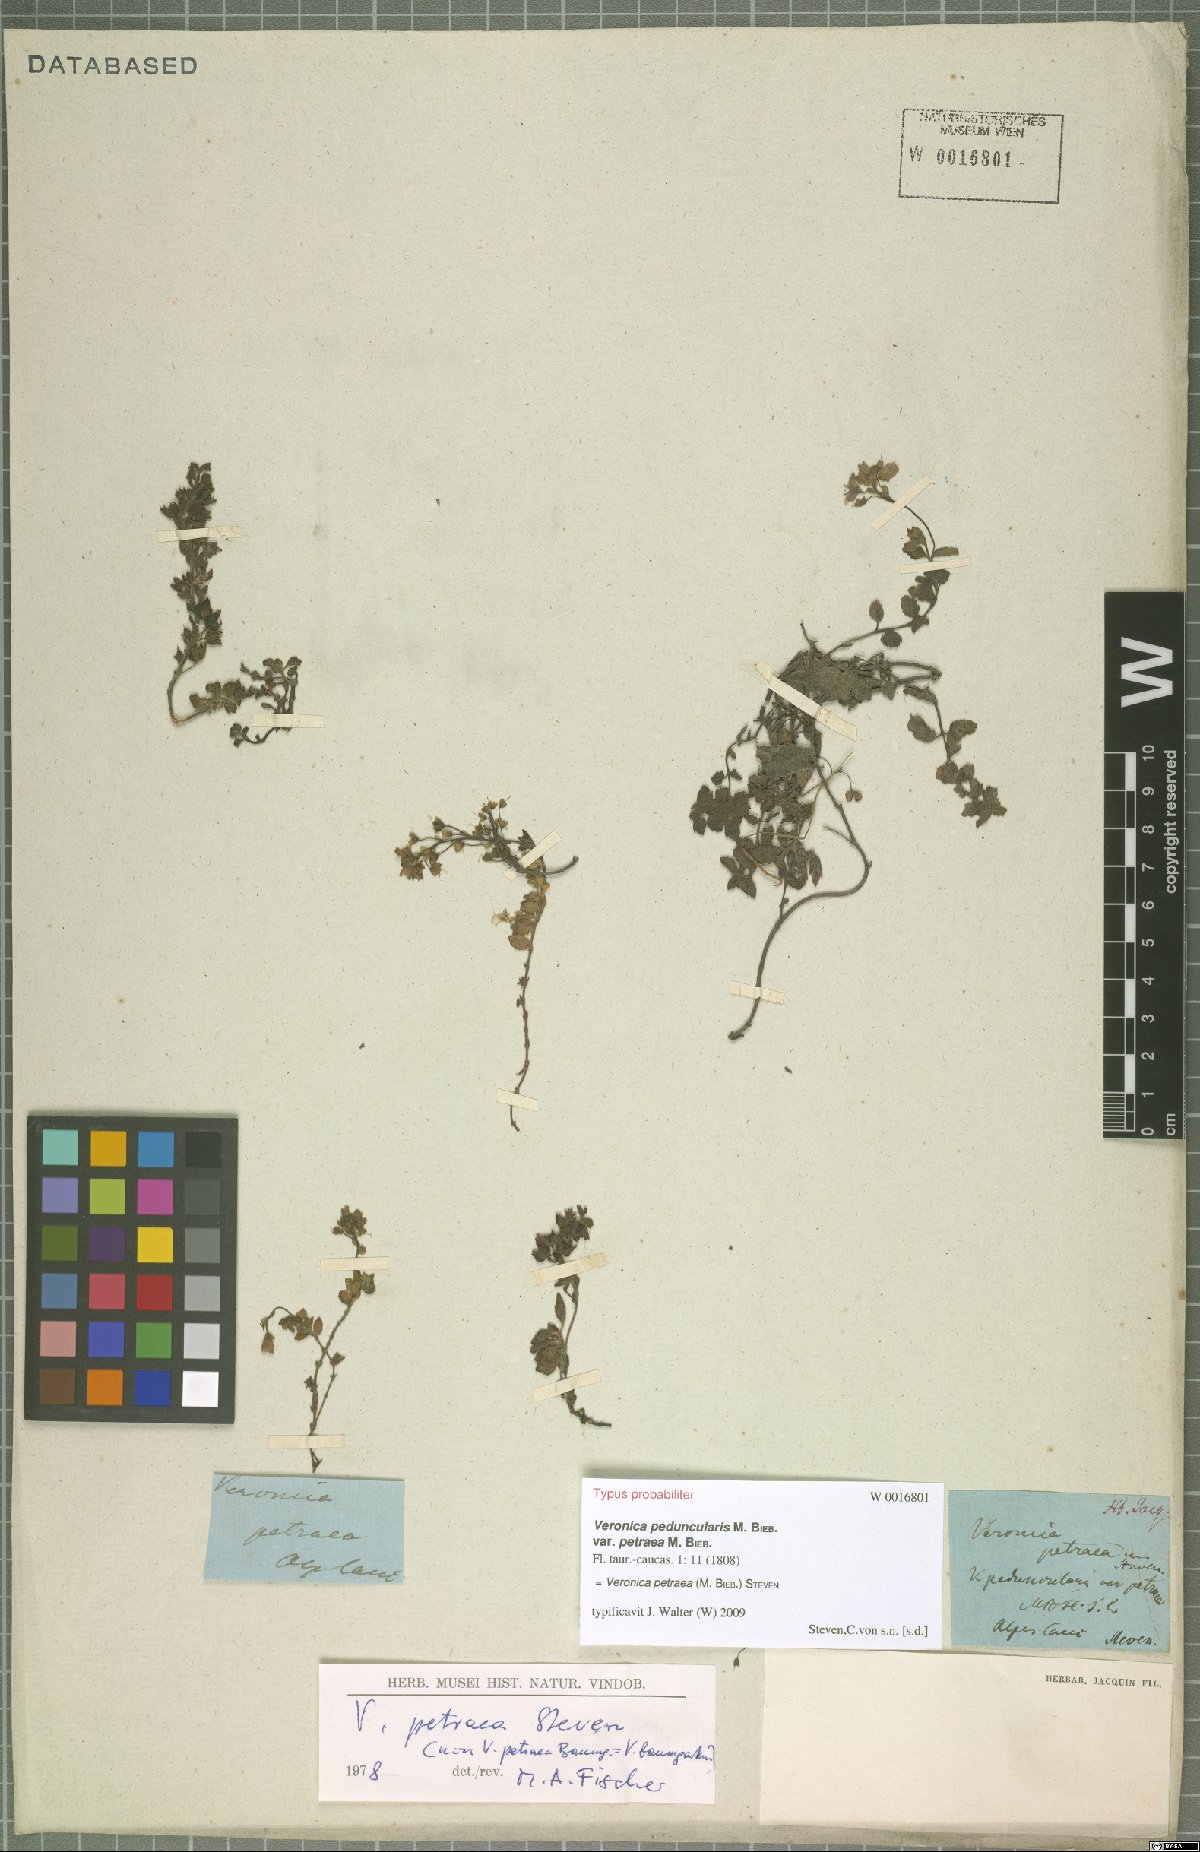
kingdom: Plantae
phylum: Tracheophyta
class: Magnoliopsida
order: Lamiales
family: Plantaginaceae
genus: Veronica
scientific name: Veronica petraea
